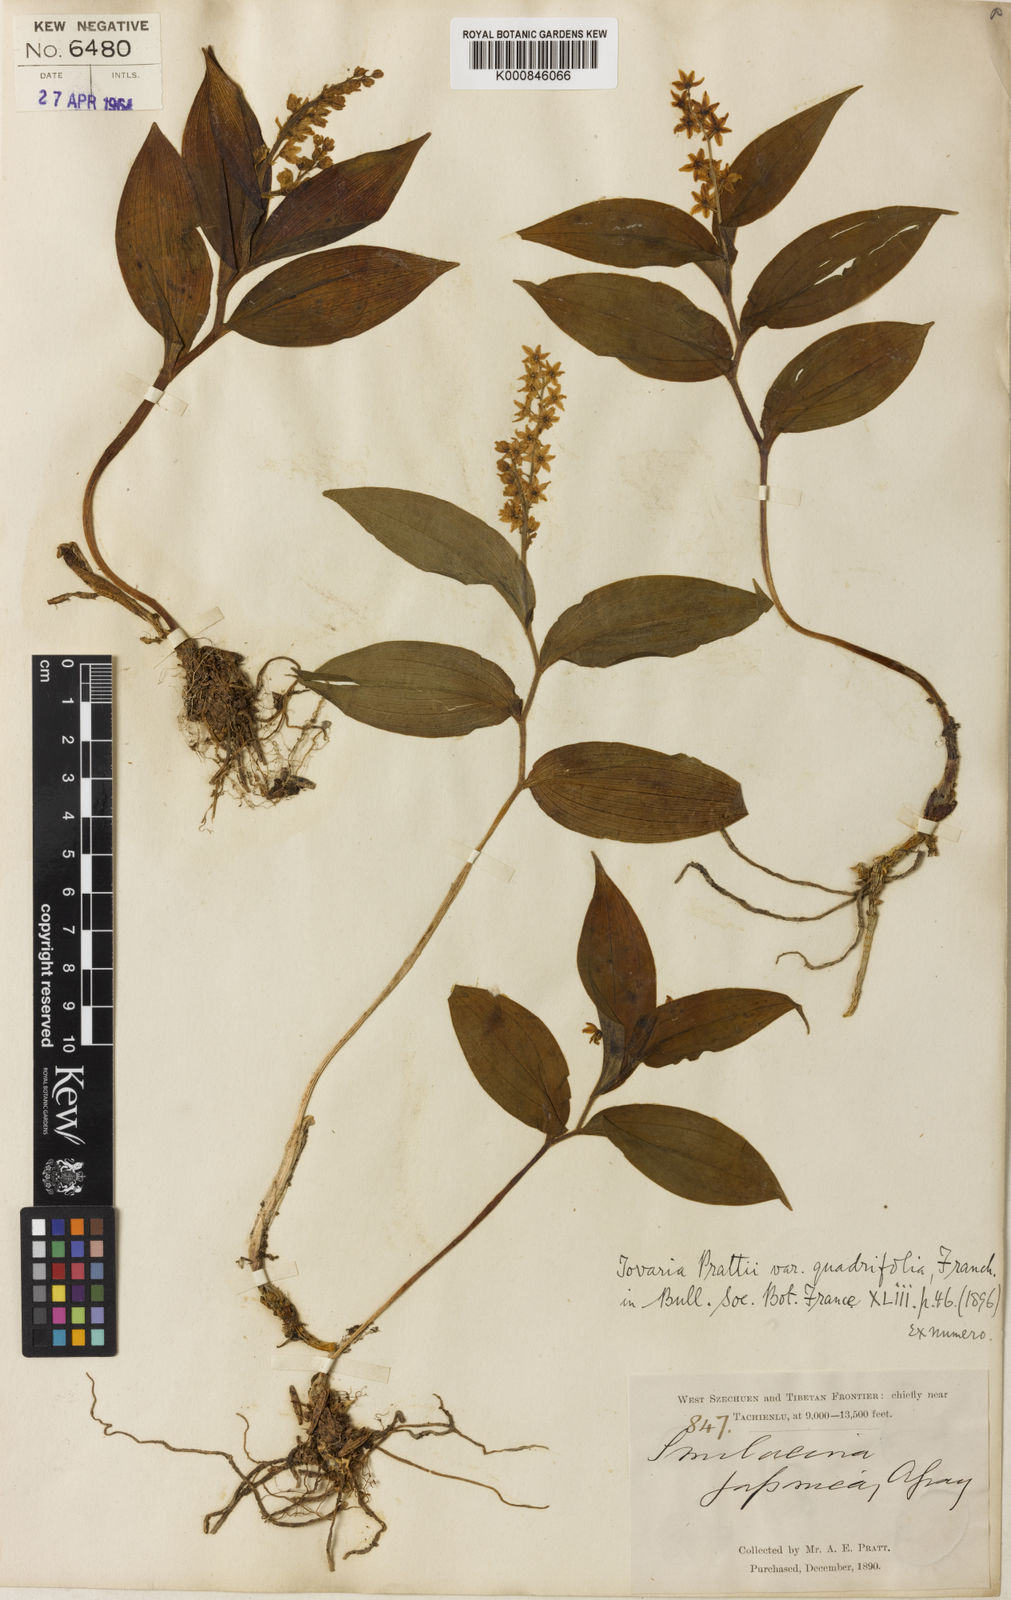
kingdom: Plantae
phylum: Tracheophyta
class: Liliopsida
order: Asparagales
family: Asparagaceae
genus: Maianthemum
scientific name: Maianthemum
